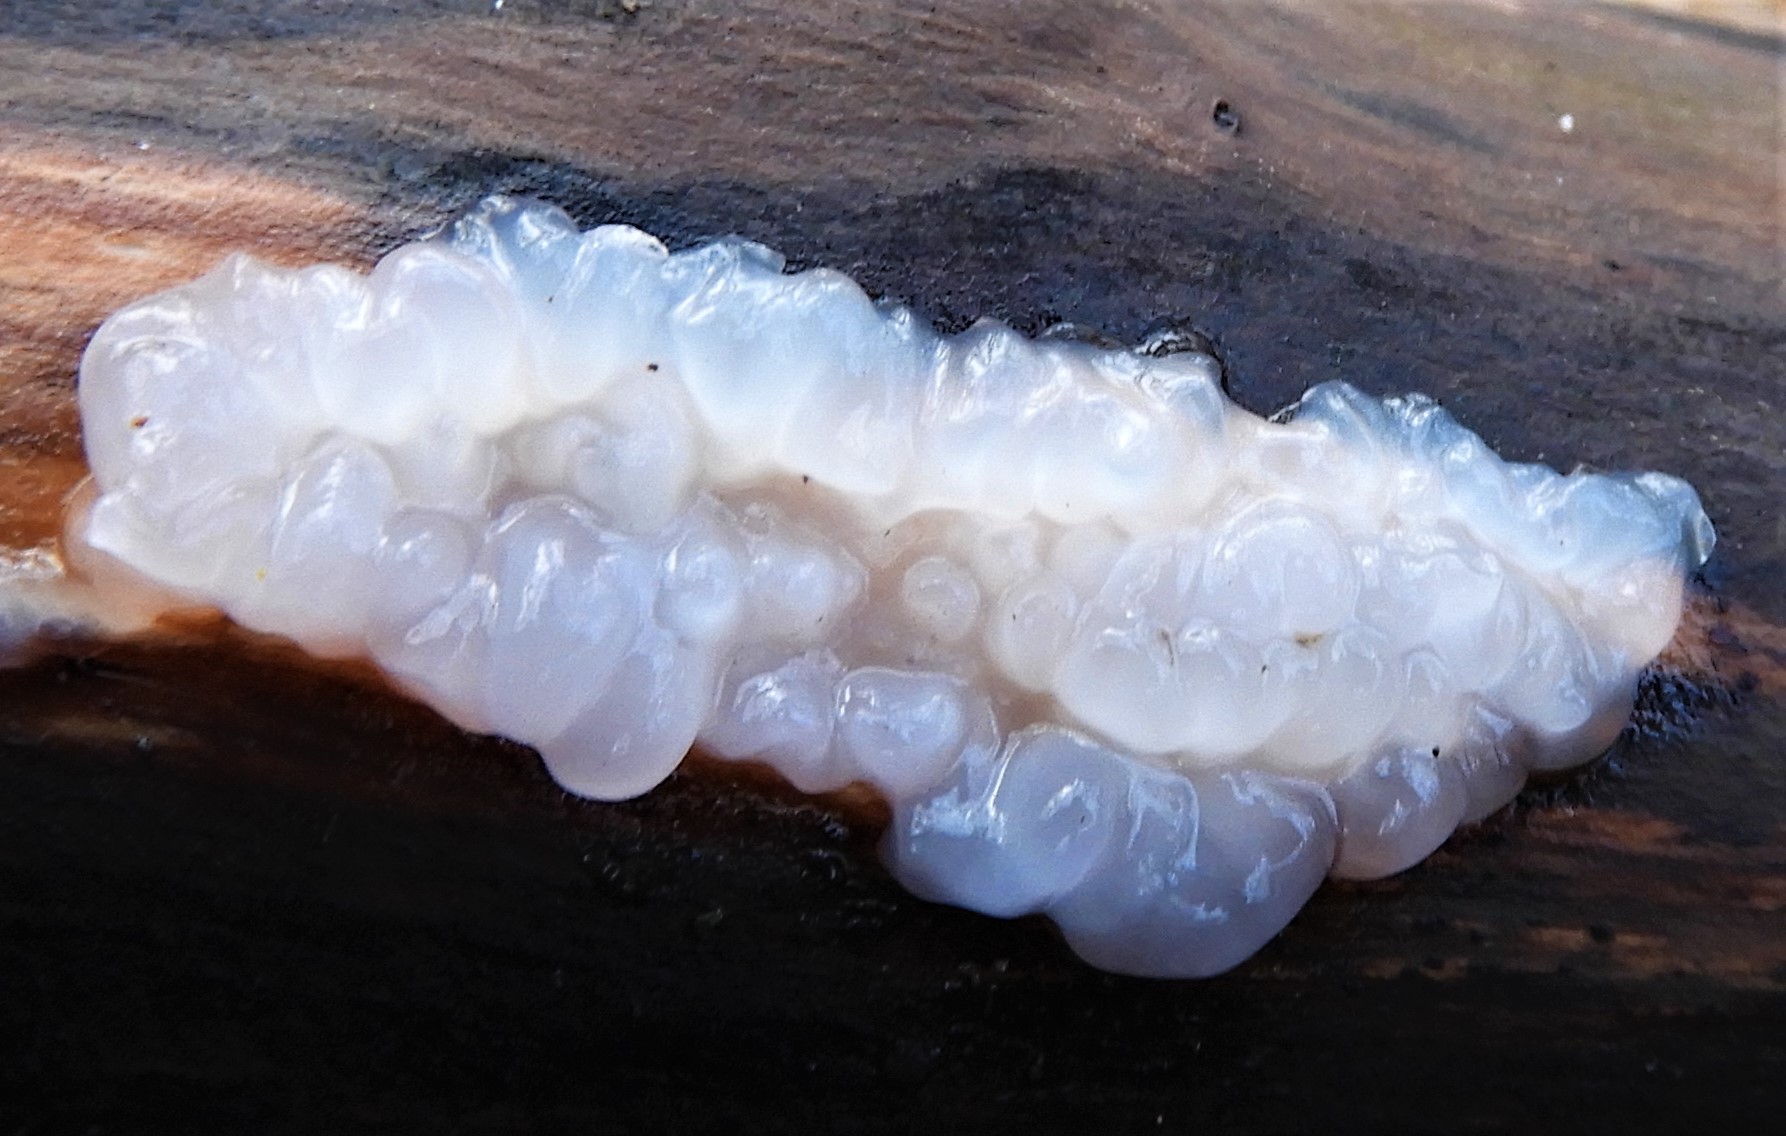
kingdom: Fungi
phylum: Basidiomycota
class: Agaricomycetes
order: Auriculariales
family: Auriculariaceae
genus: Exidia
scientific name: Exidia thuretiana
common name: hvidlig bævretop
